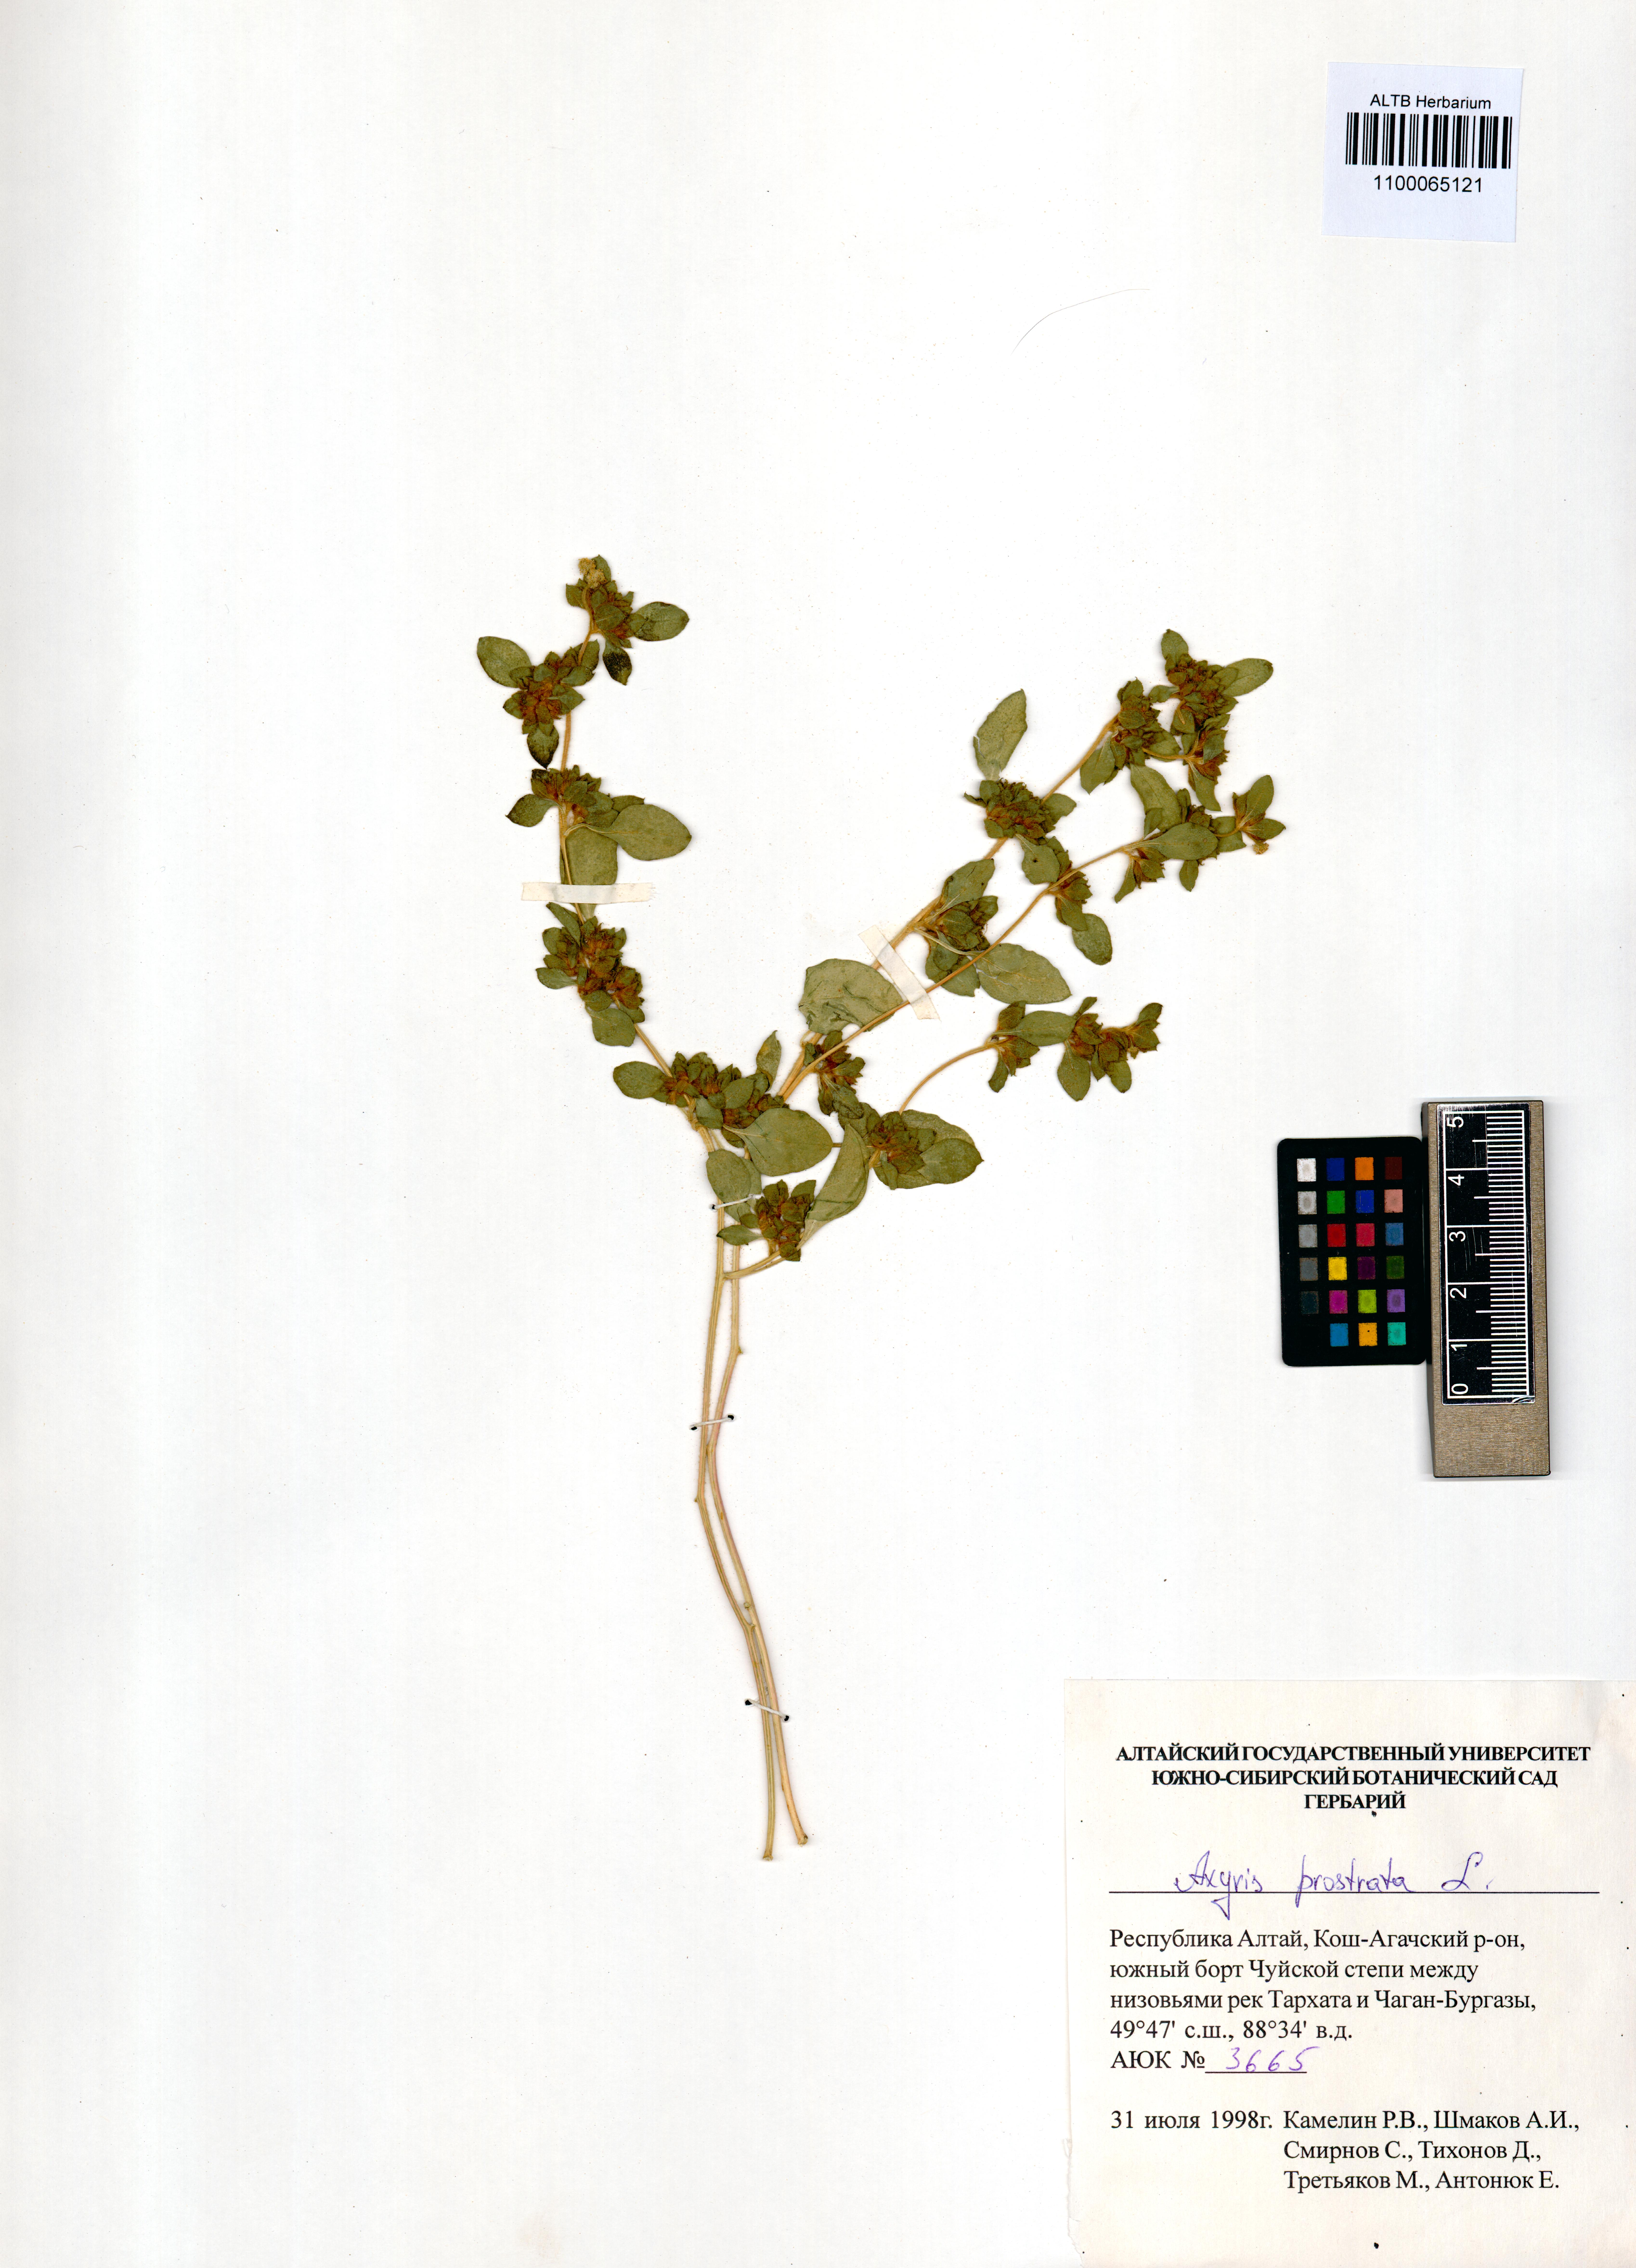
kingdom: Plantae
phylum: Tracheophyta
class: Magnoliopsida
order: Caryophyllales
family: Amaranthaceae
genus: Axyris
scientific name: Axyris prostrata
